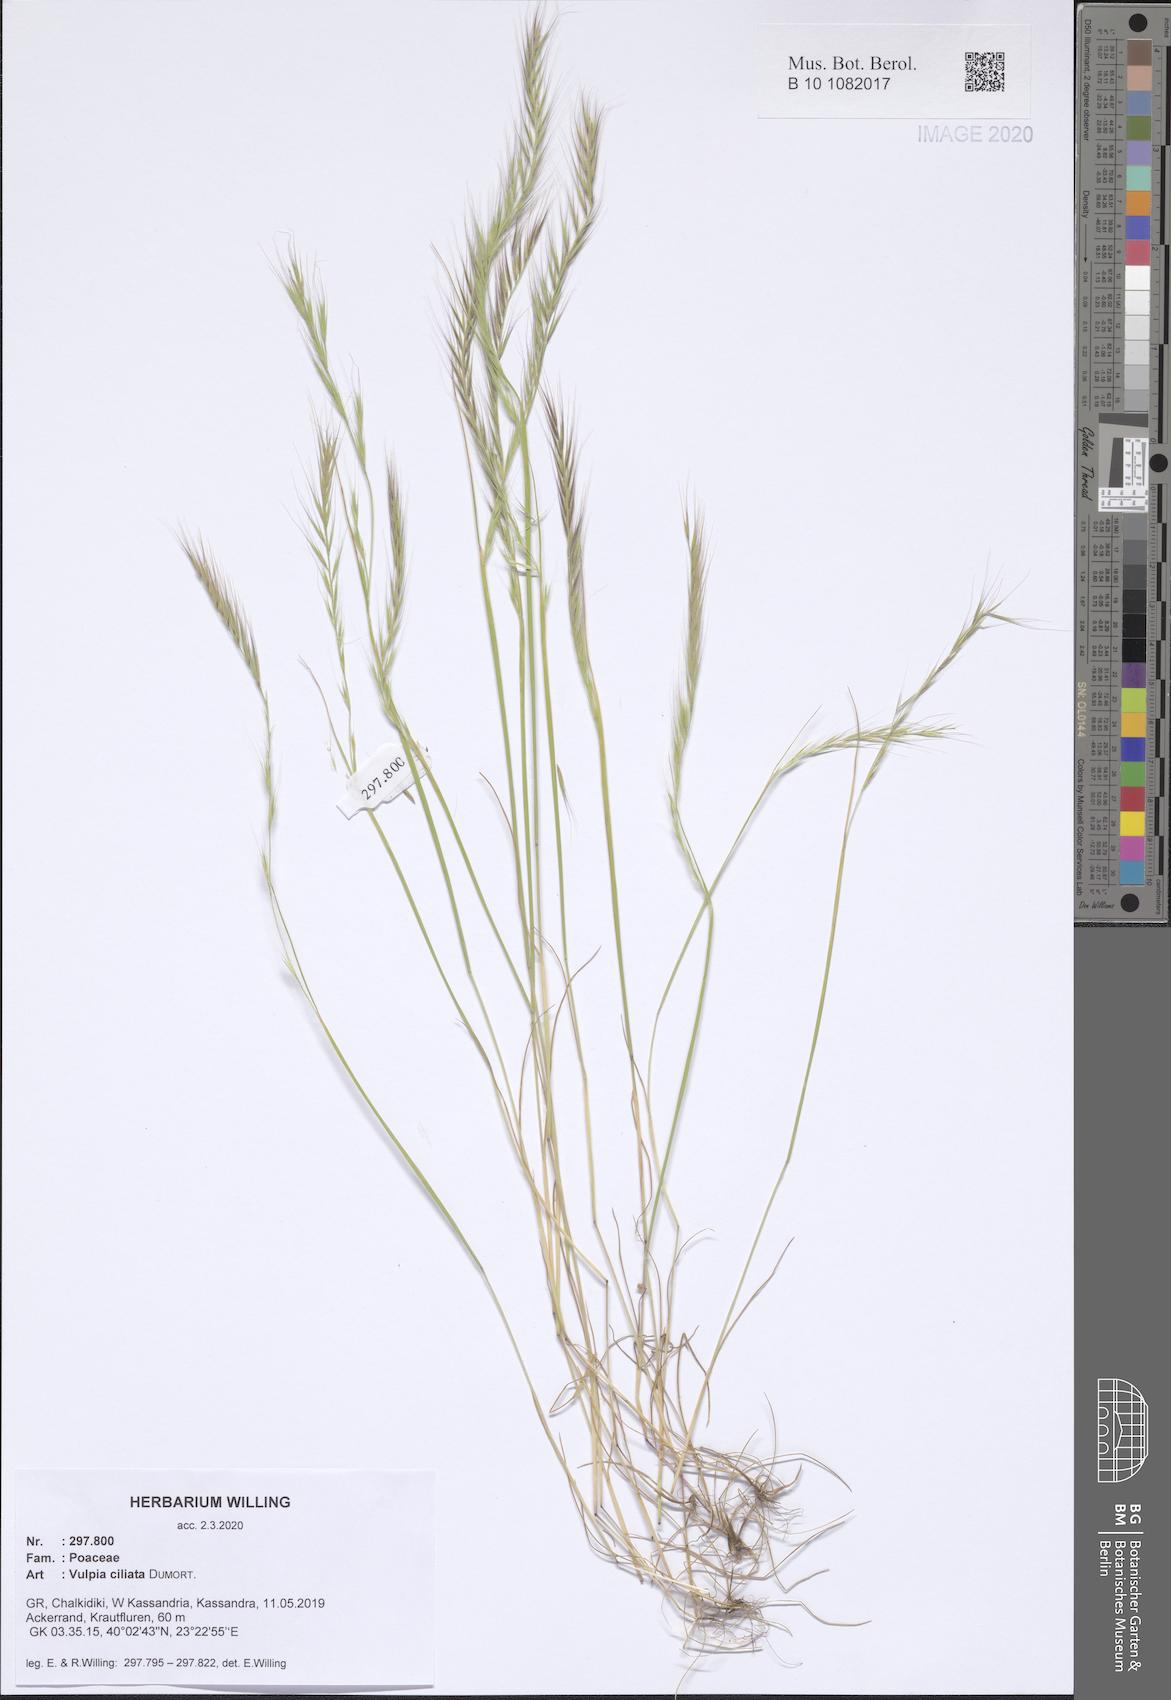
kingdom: Plantae
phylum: Tracheophyta
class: Liliopsida
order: Poales
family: Poaceae
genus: Festuca
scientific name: Festuca ambigua
